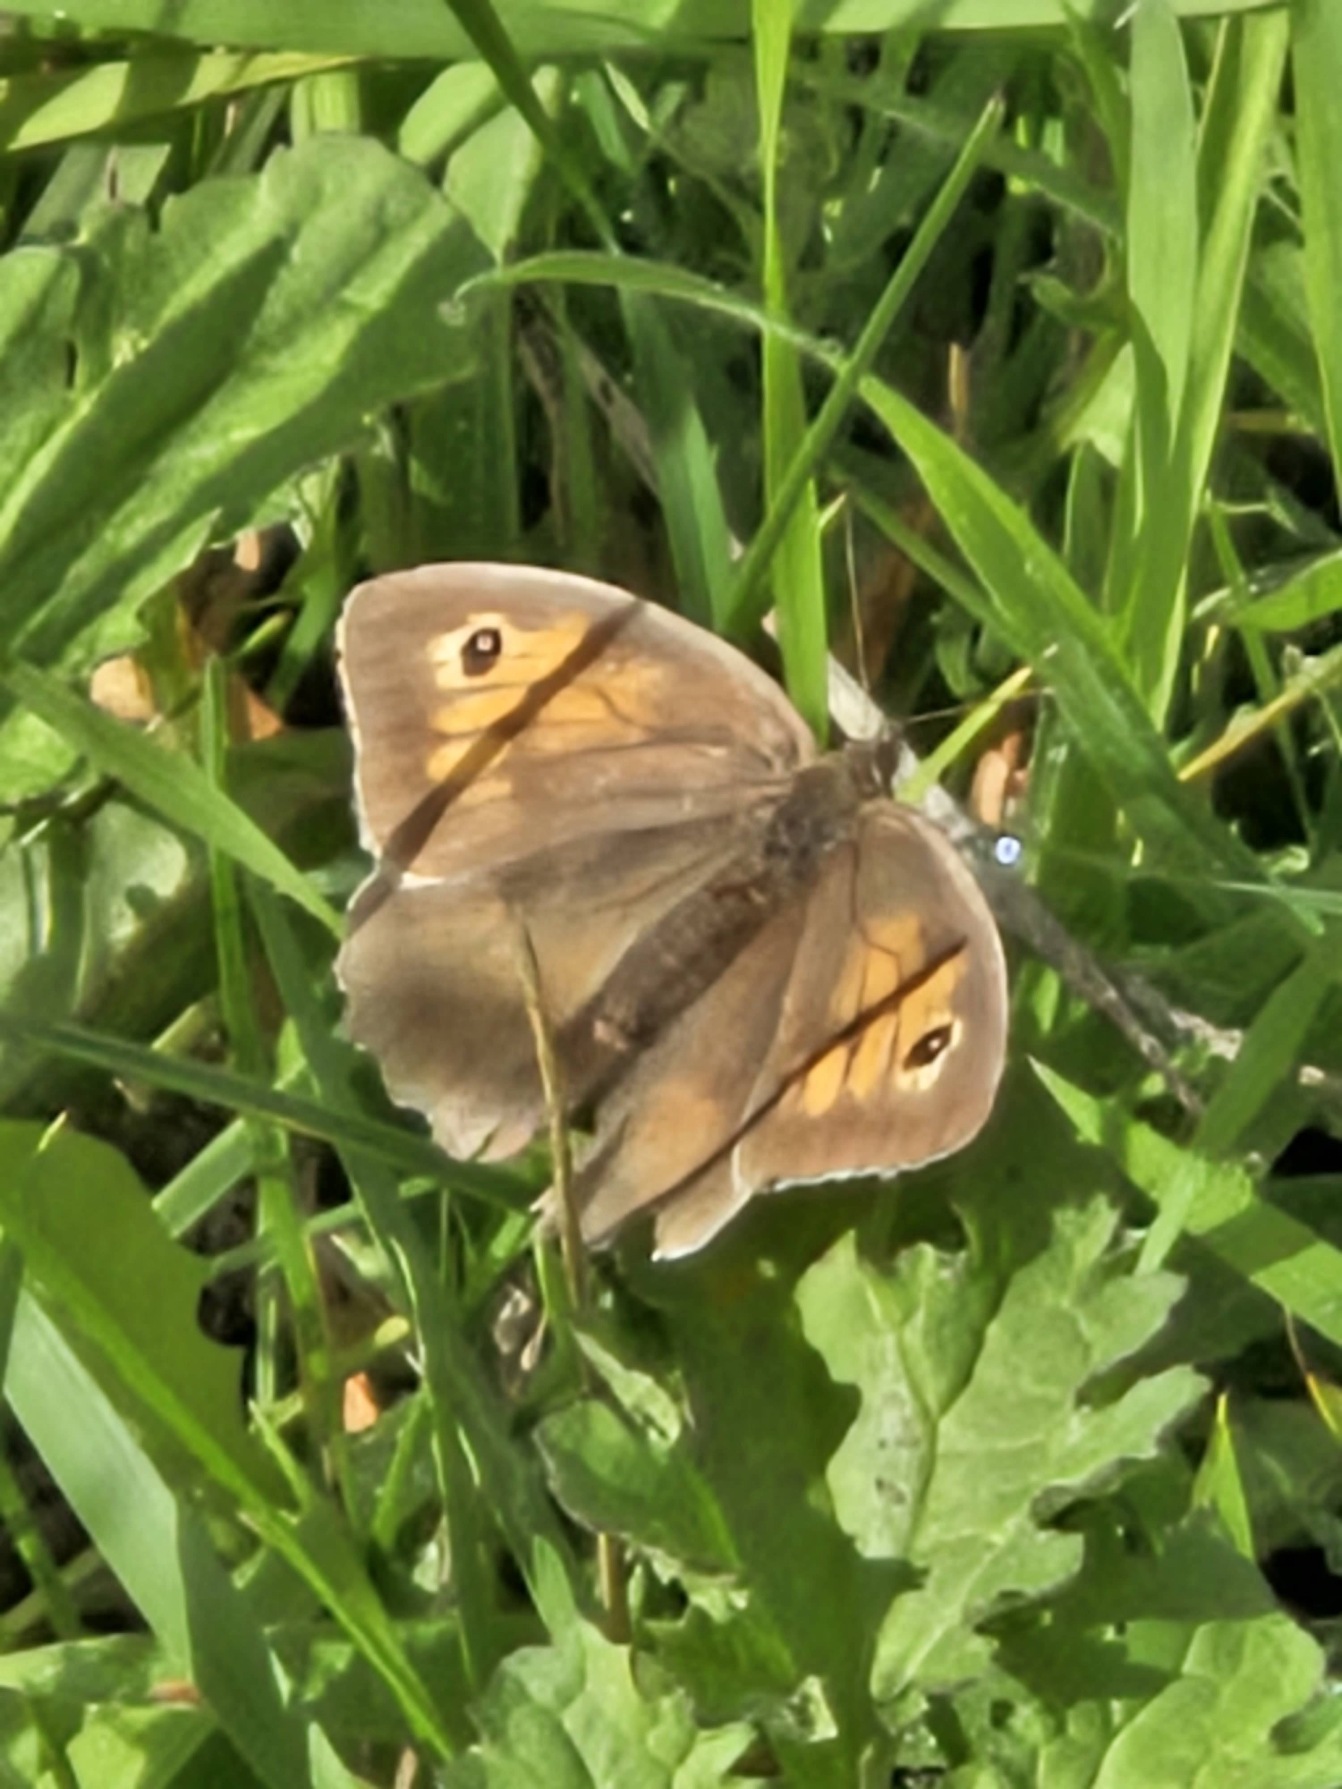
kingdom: Animalia
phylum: Arthropoda
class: Insecta
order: Lepidoptera
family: Nymphalidae
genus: Maniola
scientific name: Maniola jurtina
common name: Græsrandøje
